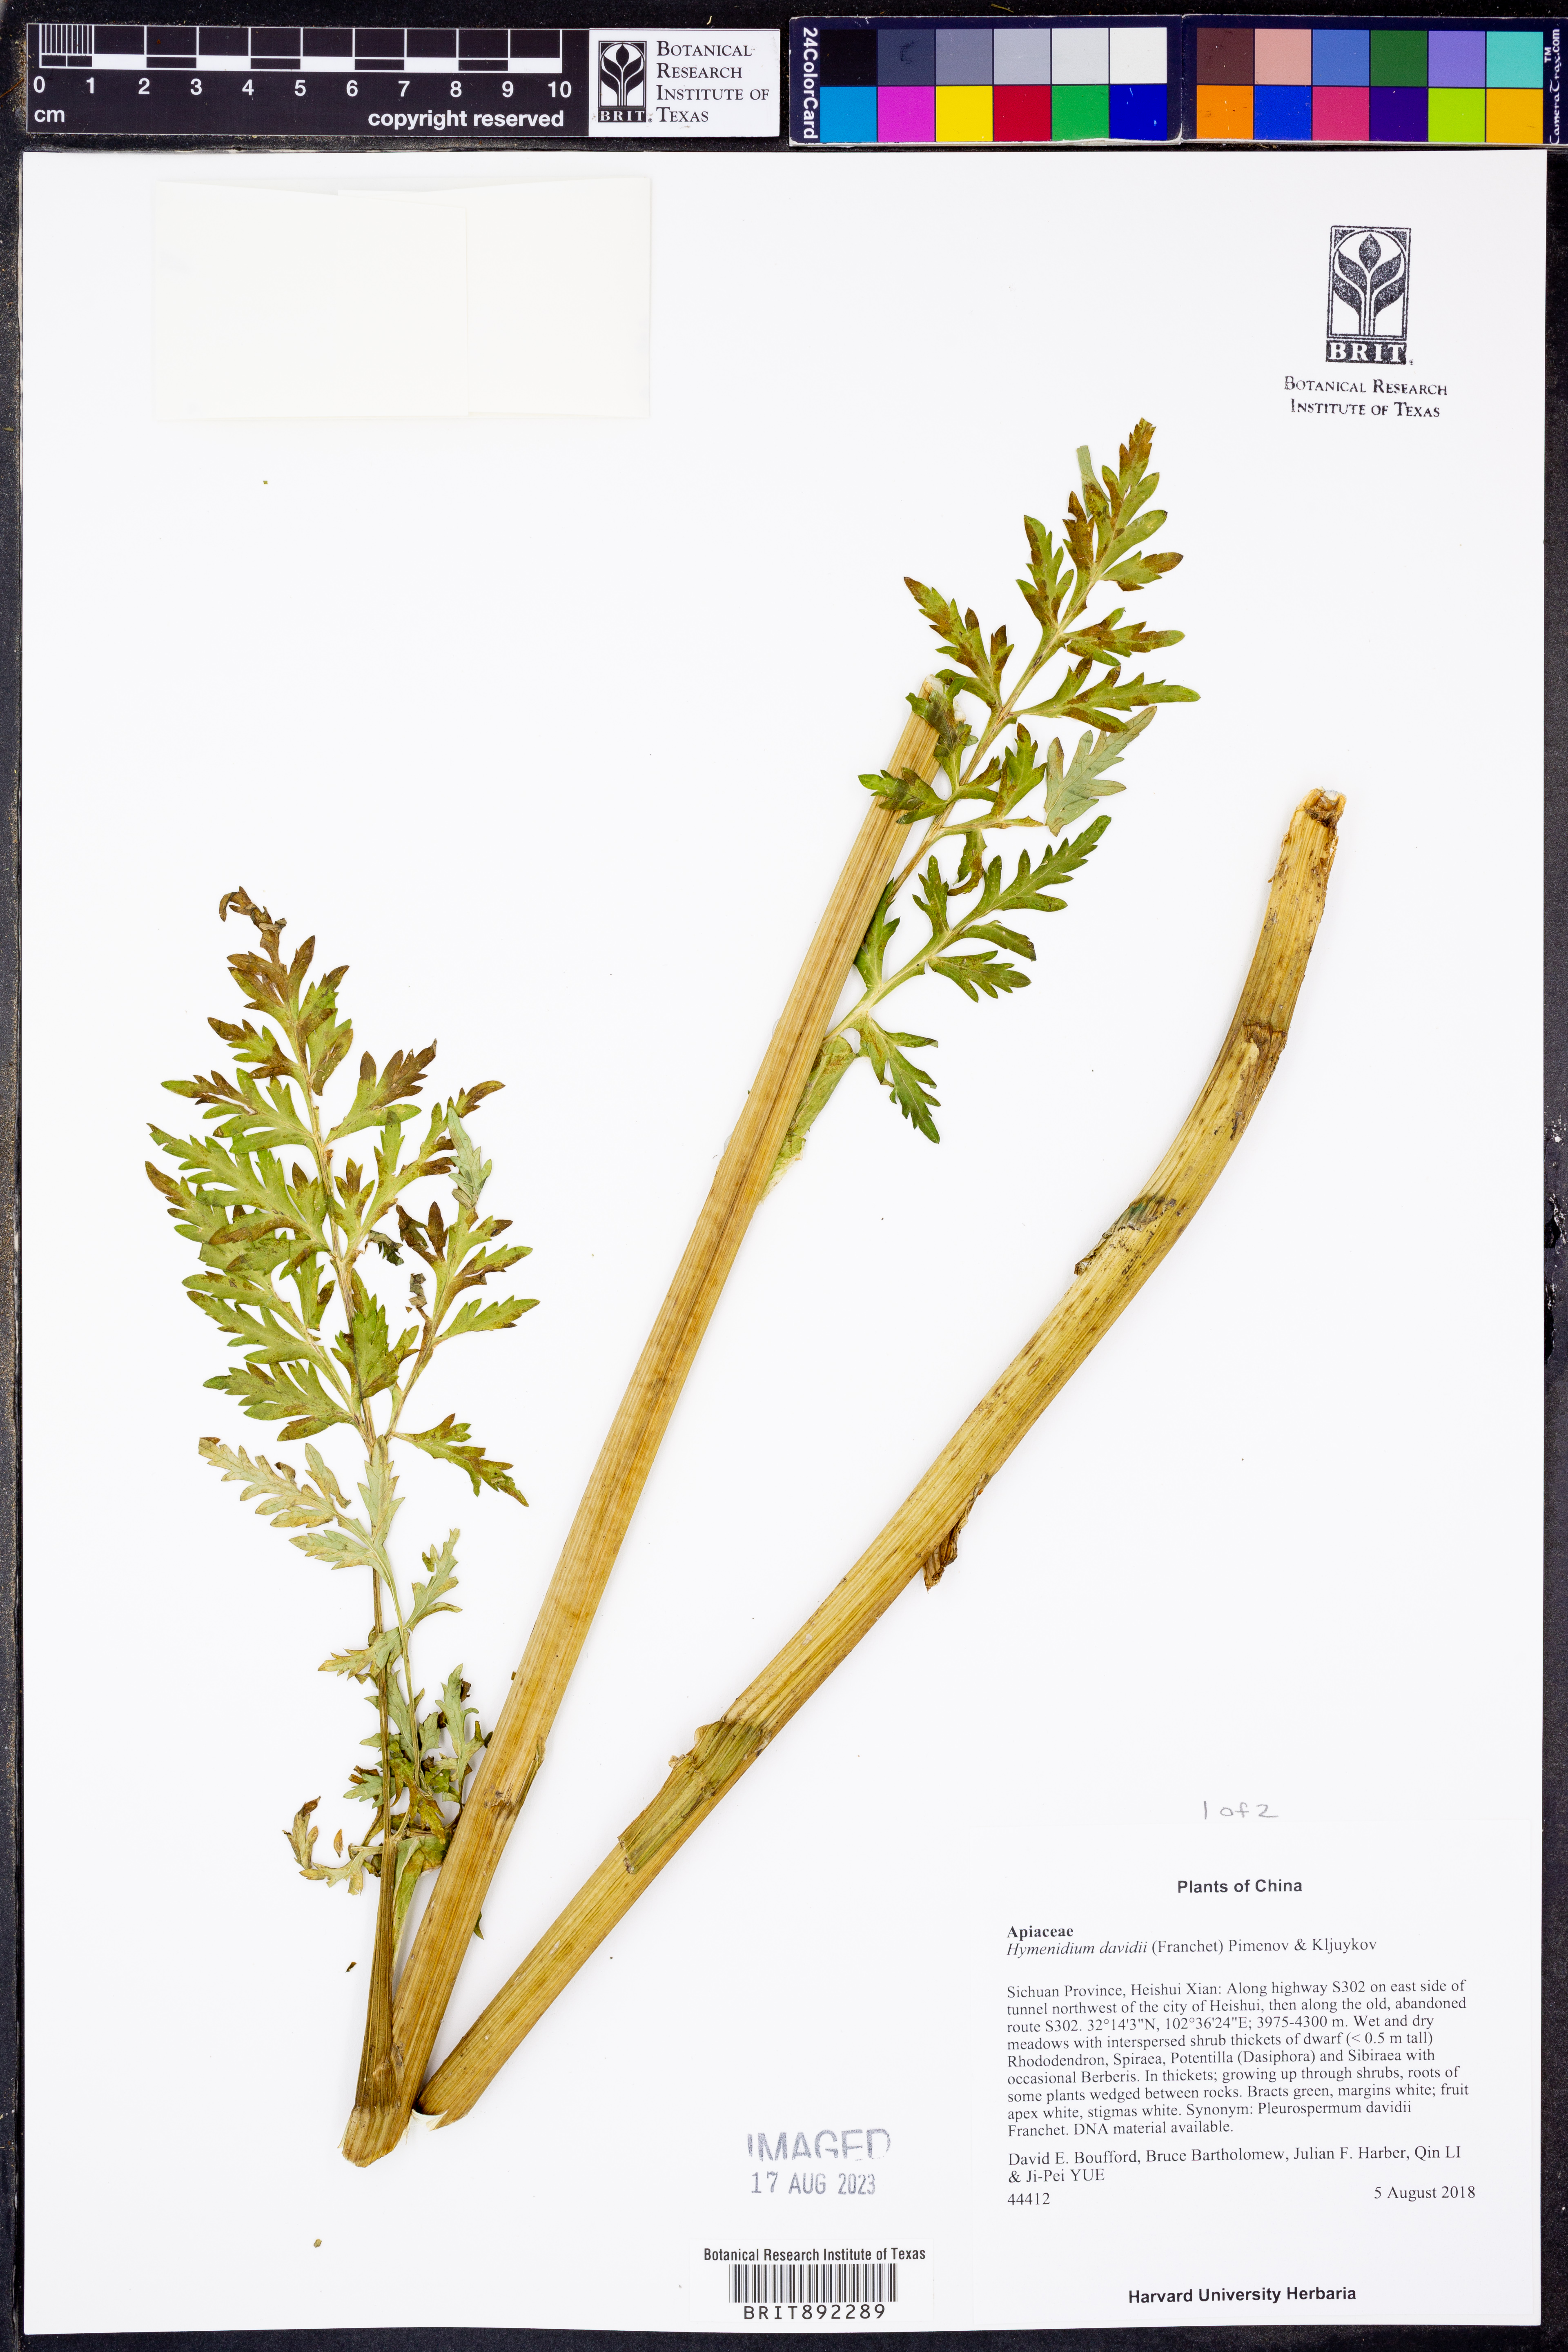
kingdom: Plantae
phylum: Tracheophyta
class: Magnoliopsida
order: Apiales
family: Apiaceae
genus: Hymenidium
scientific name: Hymenidium davidii
